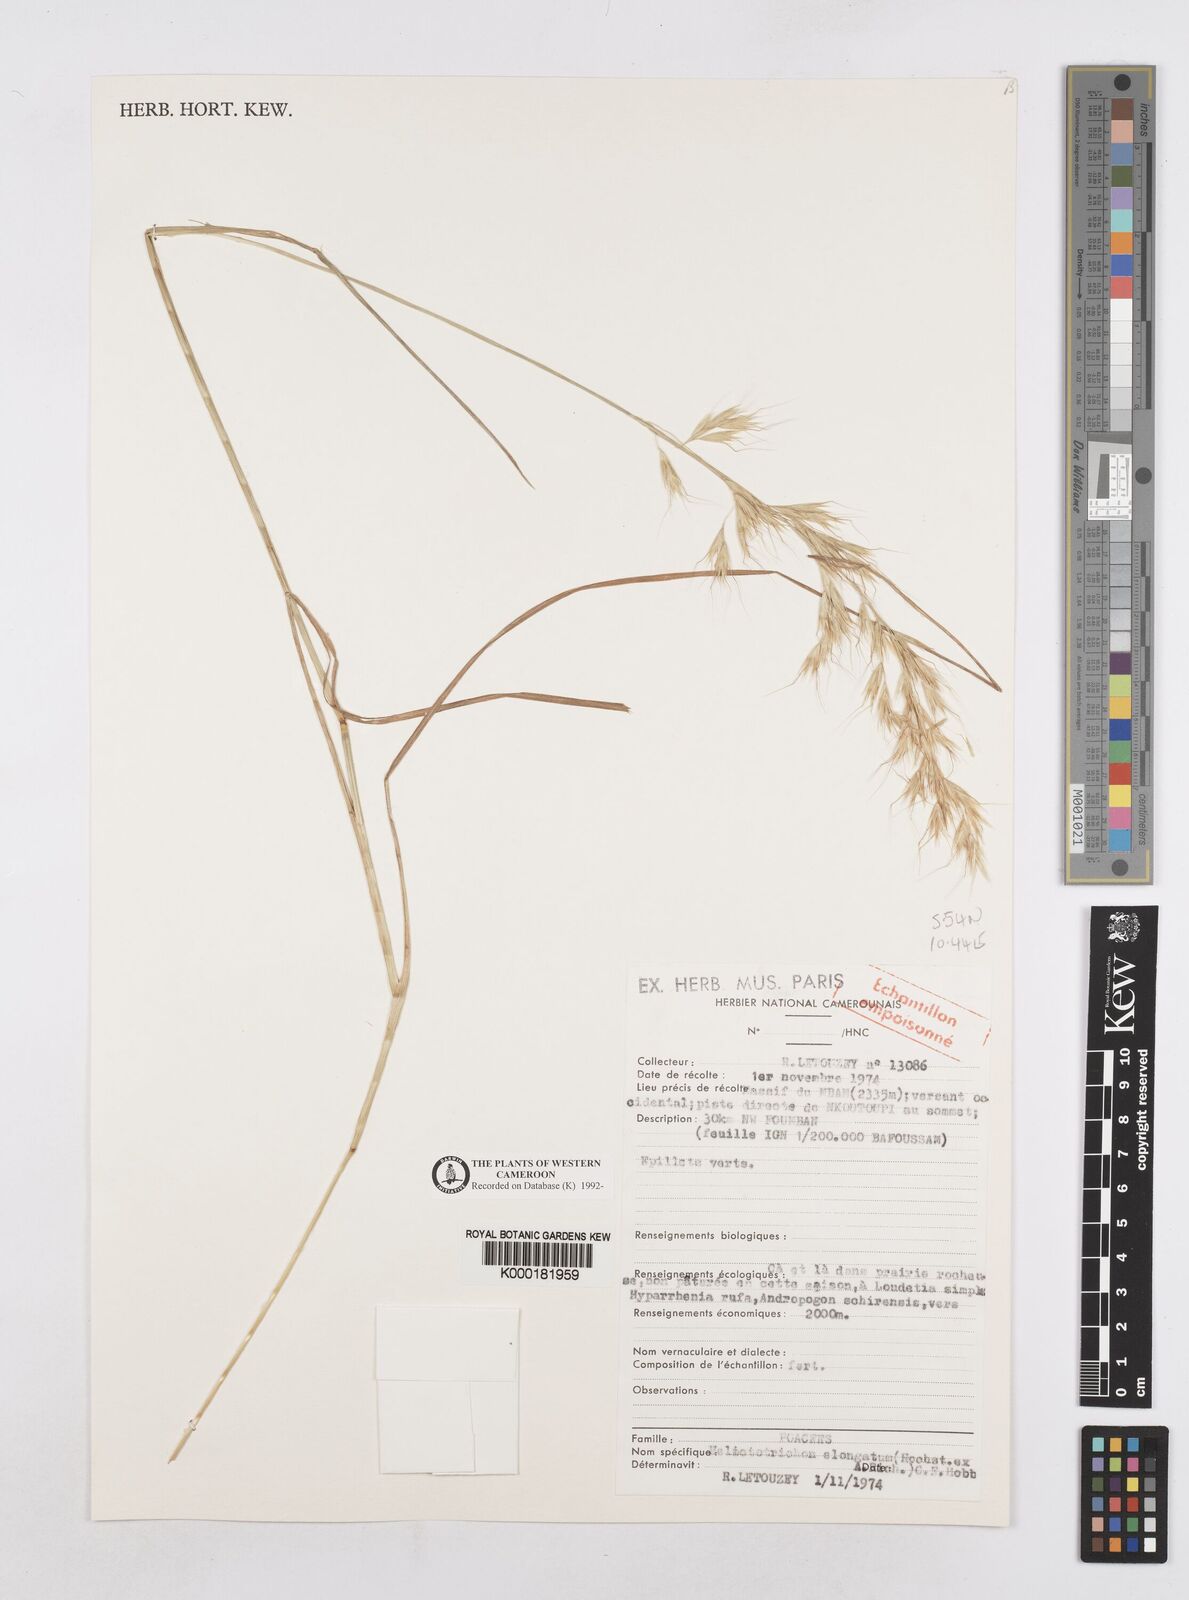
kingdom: Plantae
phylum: Tracheophyta
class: Liliopsida
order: Poales
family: Poaceae
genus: Trisetopsis
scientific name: Trisetopsis elongata
